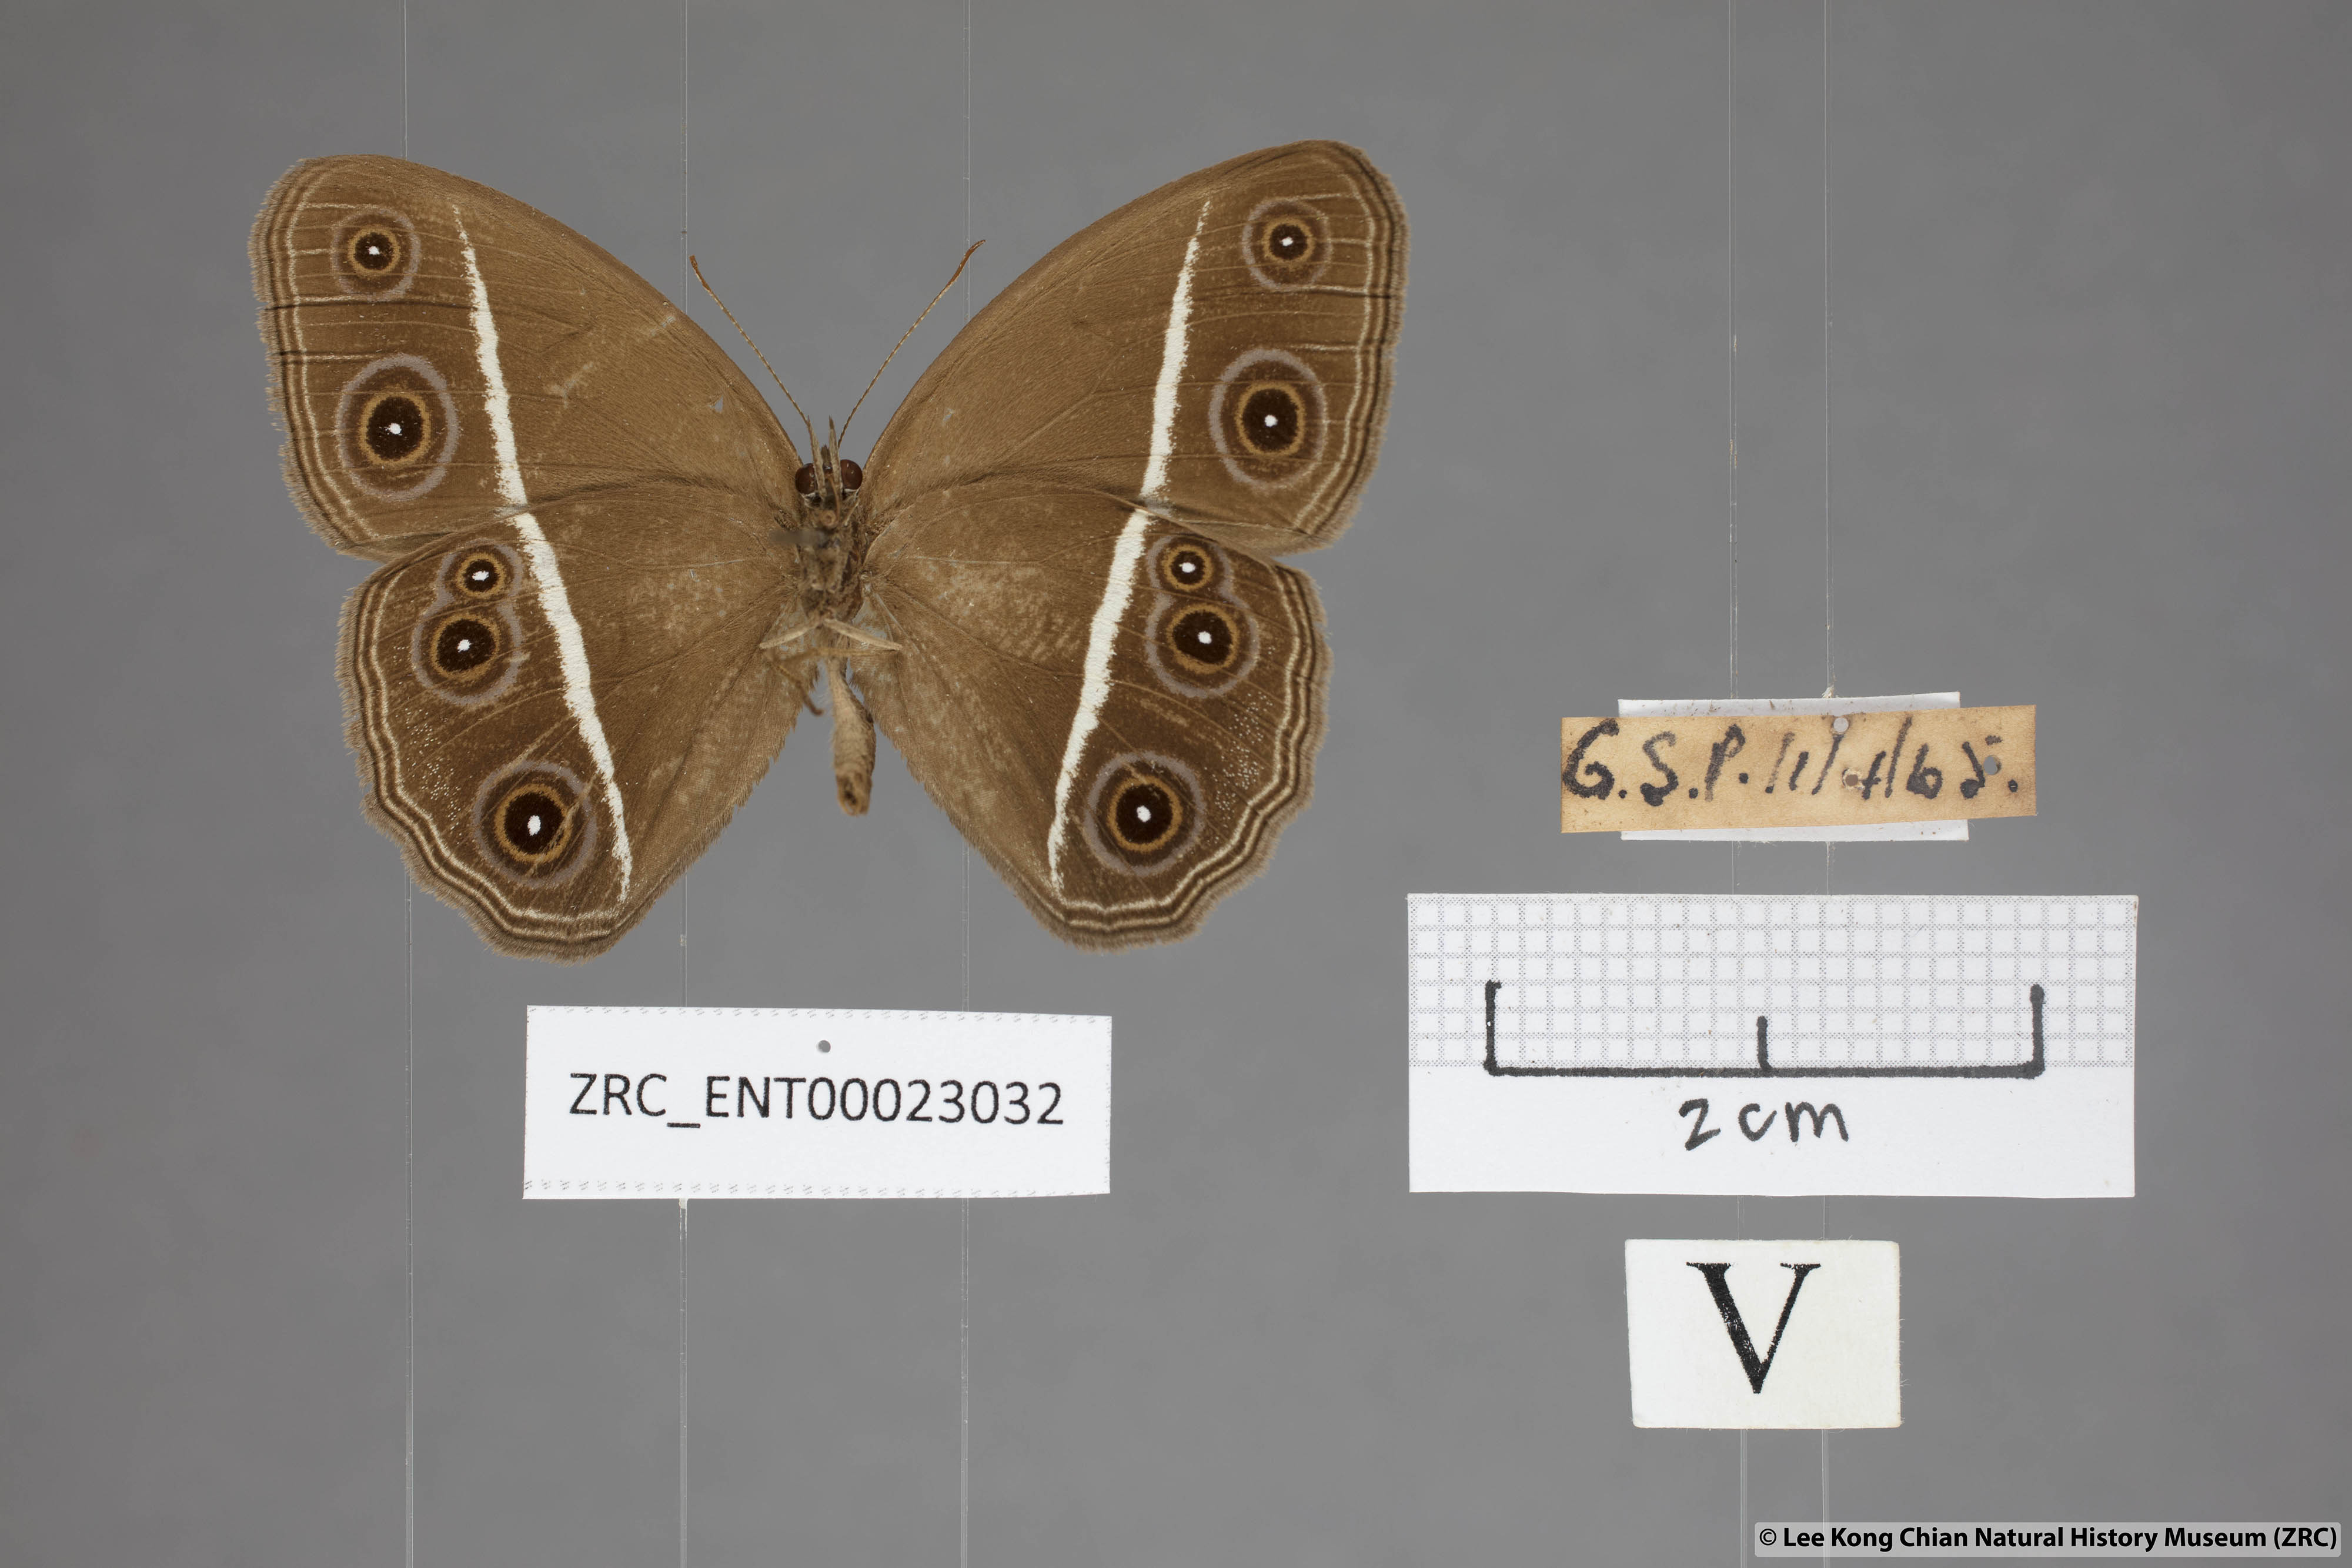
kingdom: Animalia
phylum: Arthropoda
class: Insecta
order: Lepidoptera
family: Nymphalidae
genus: Orsotriaena
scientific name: Orsotriaena medus
